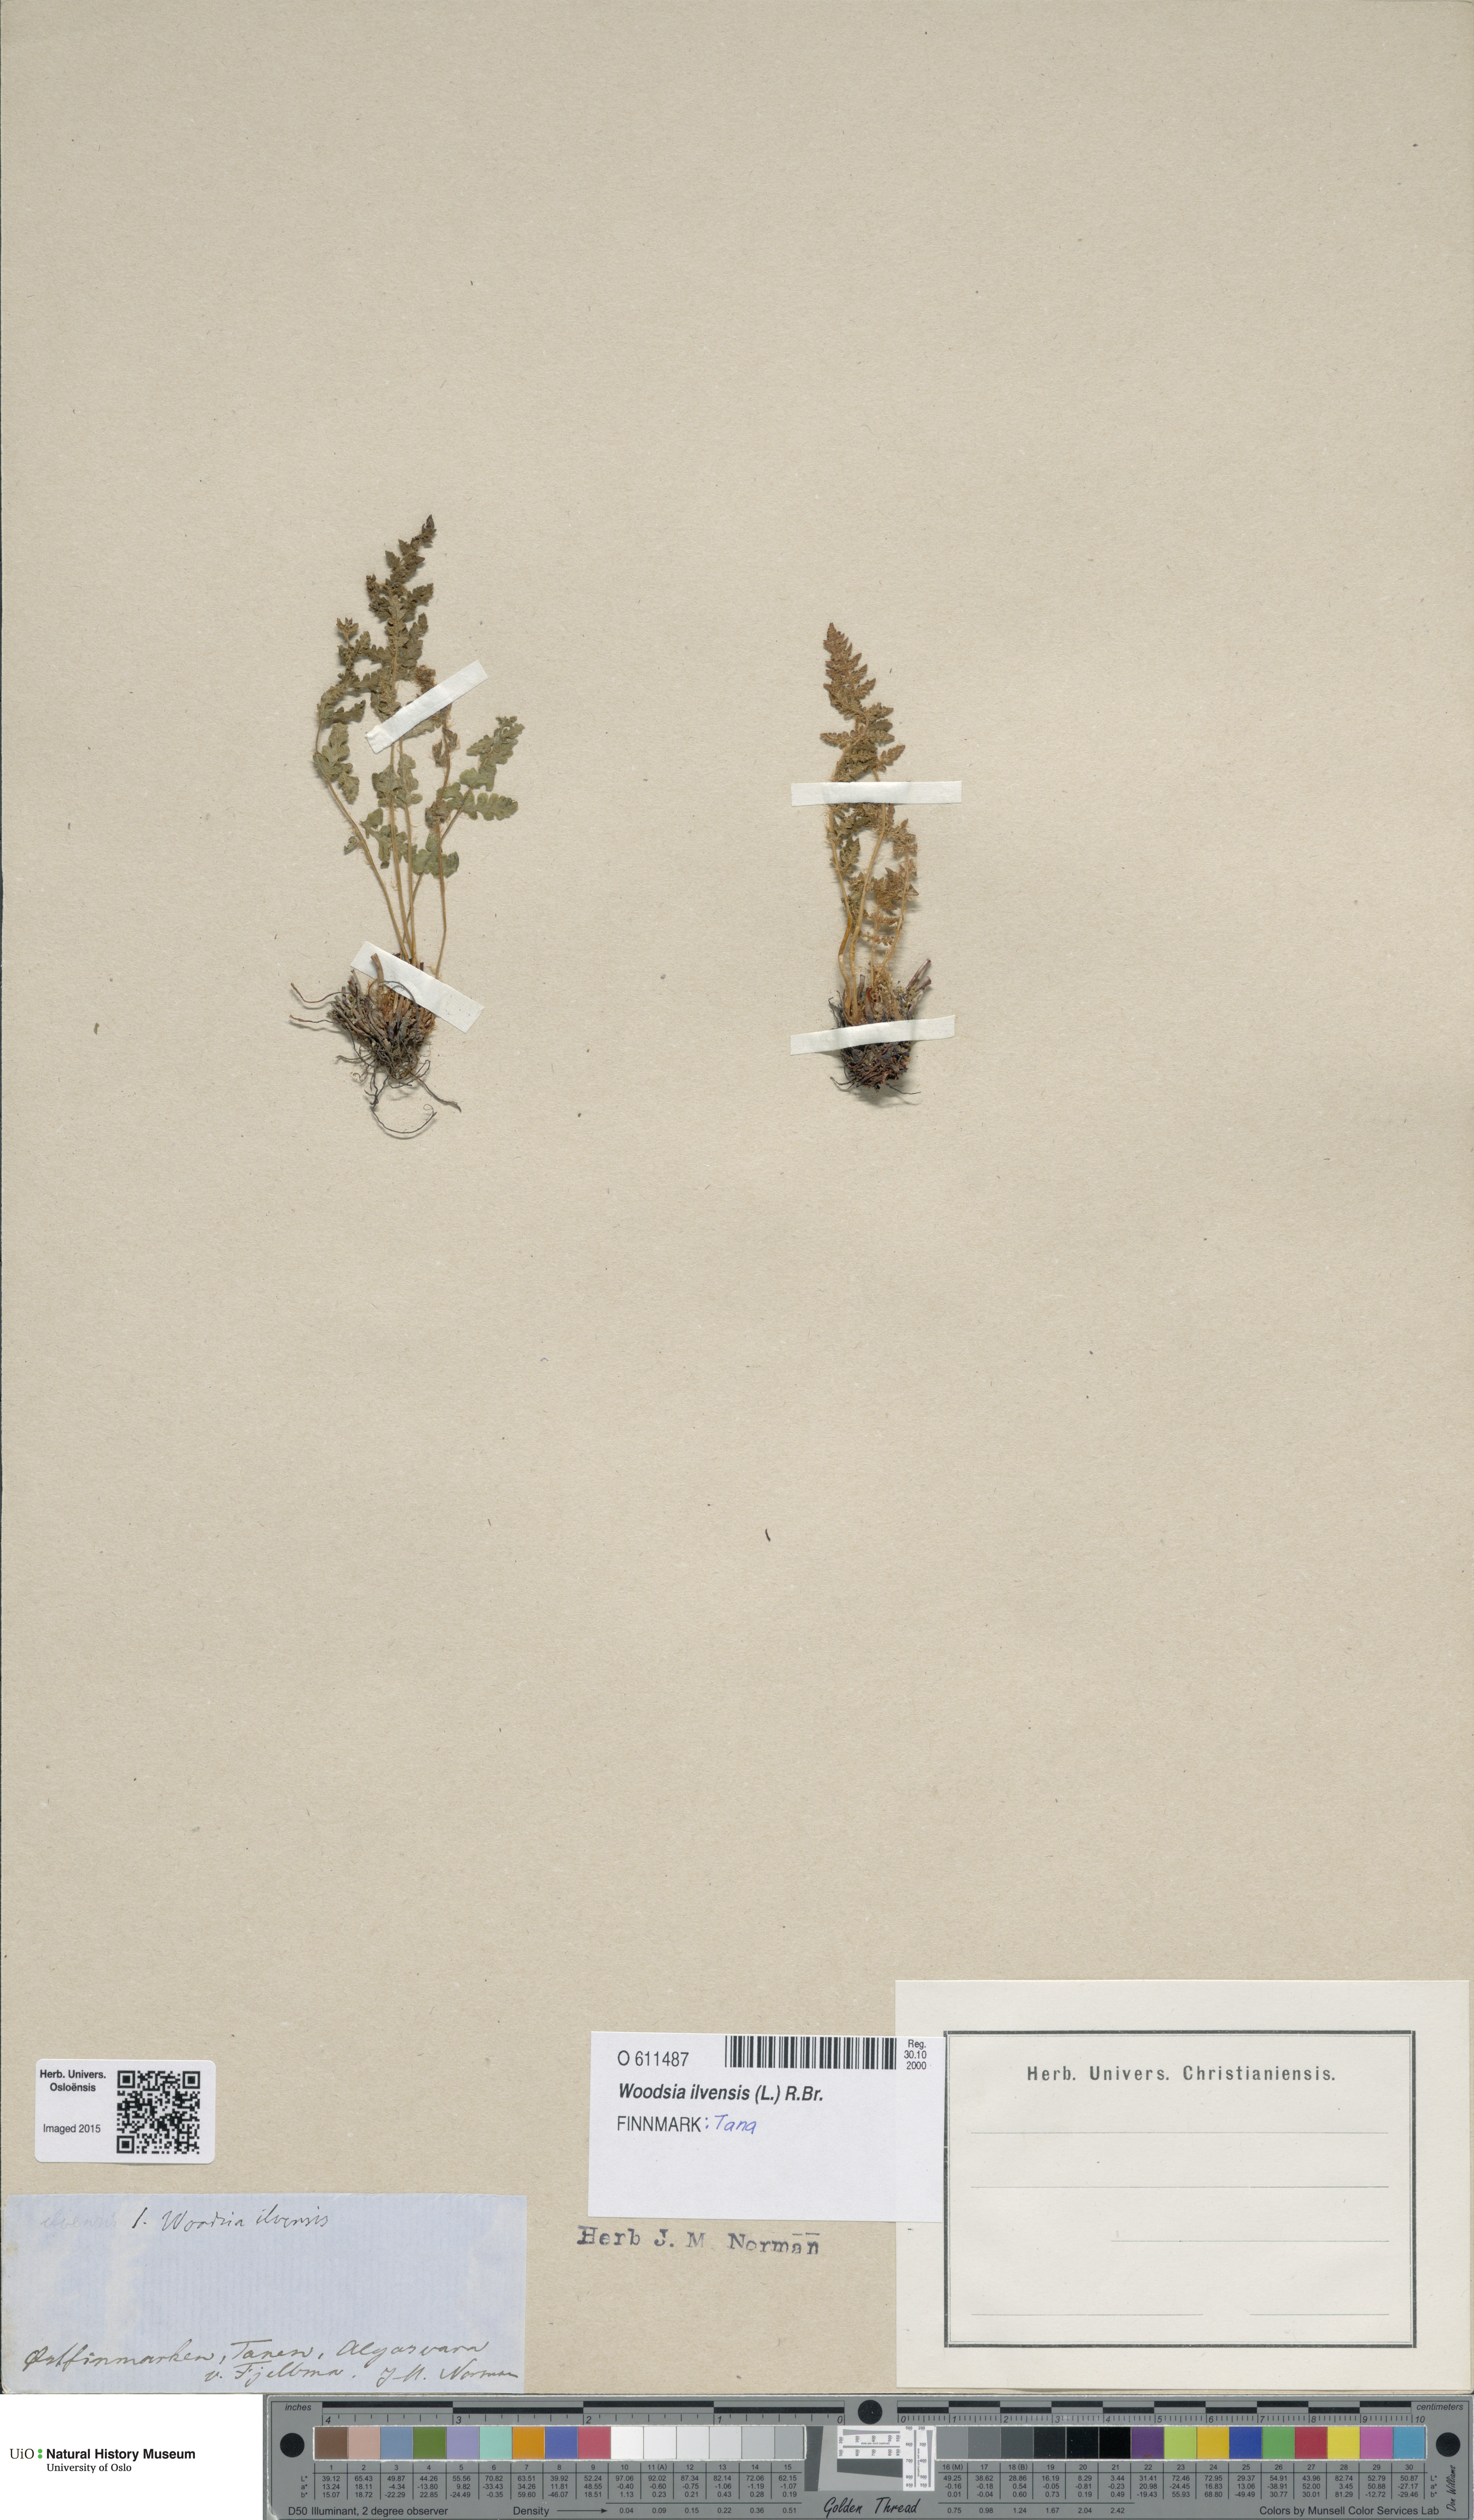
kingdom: Plantae
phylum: Tracheophyta
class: Polypodiopsida
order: Polypodiales
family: Woodsiaceae
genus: Woodsia
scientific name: Woodsia ilvensis
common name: Fragrant woodsia
